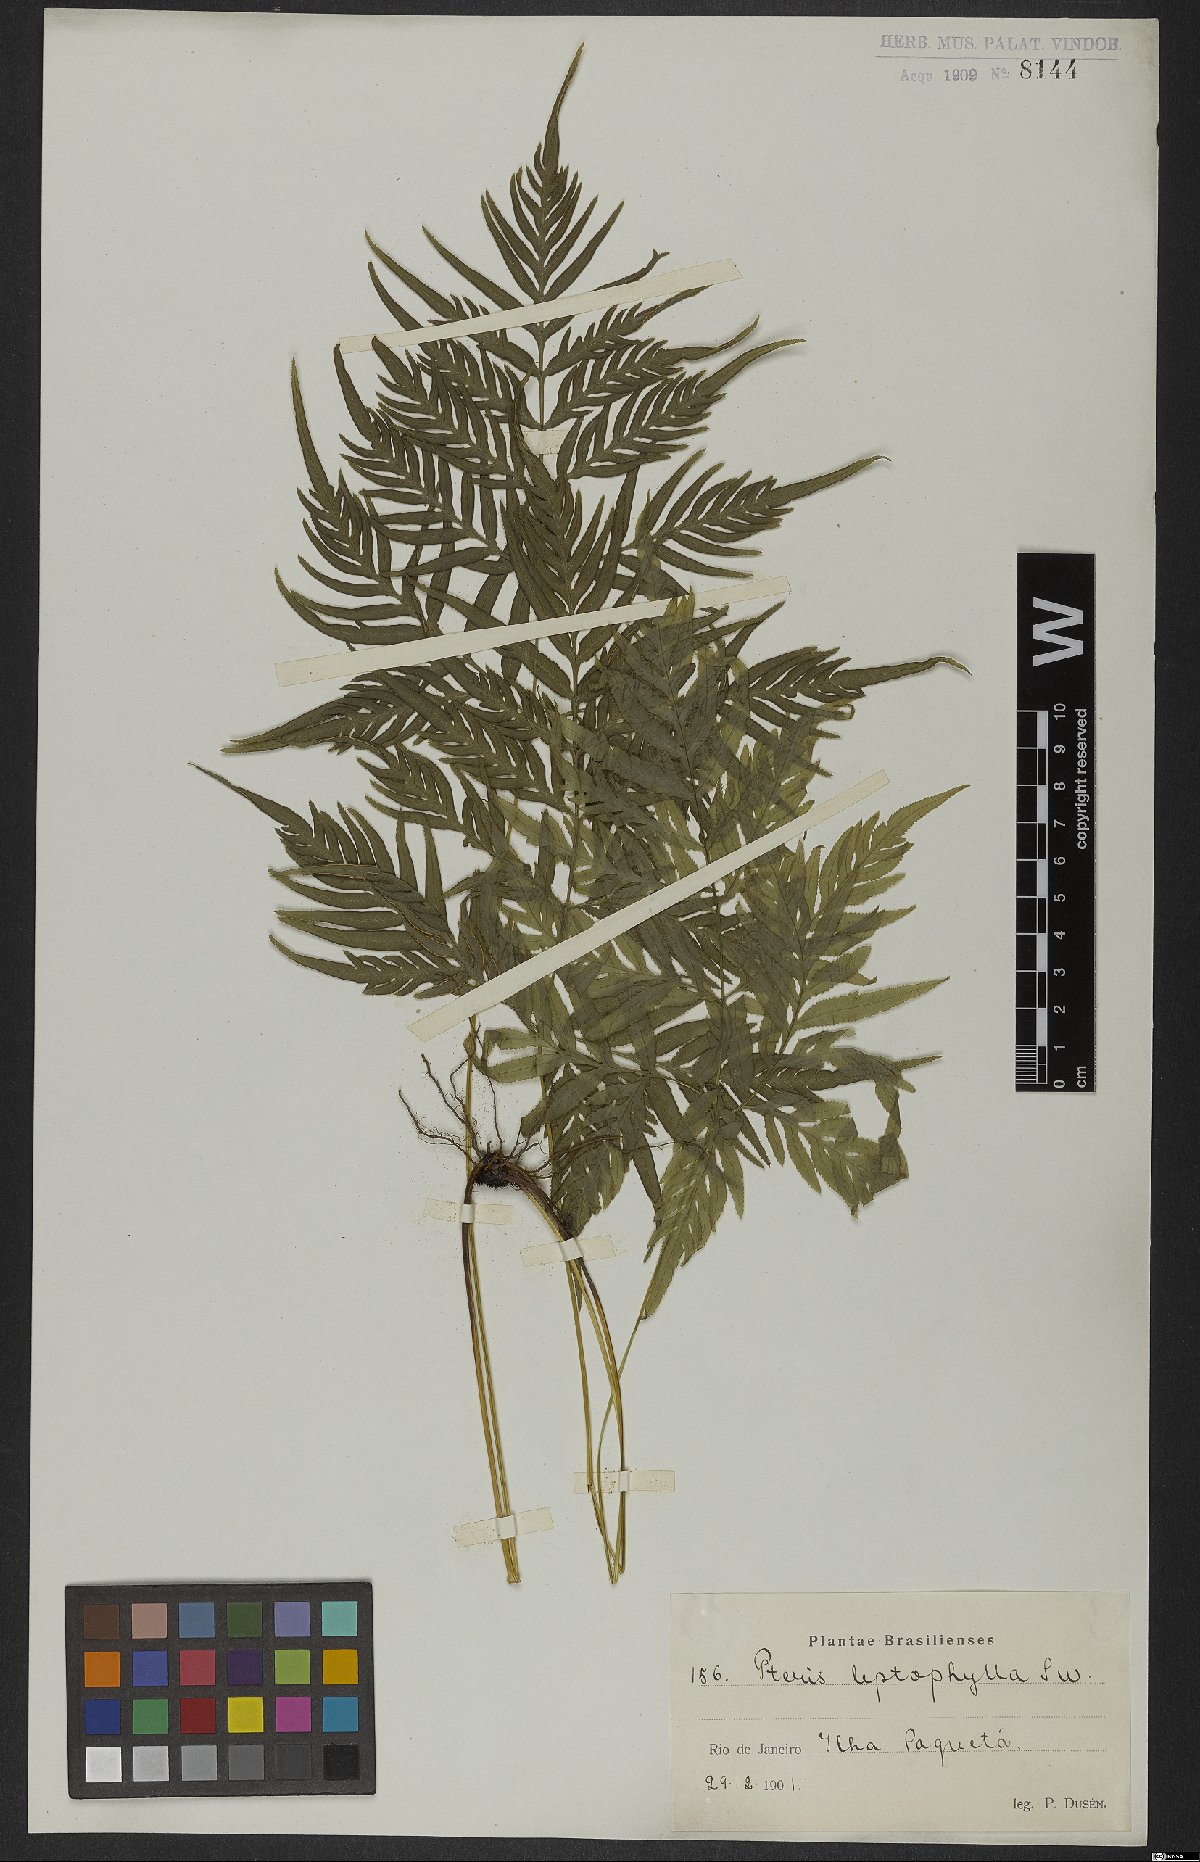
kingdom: Plantae
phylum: Tracheophyta
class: Polypodiopsida
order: Polypodiales
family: Pteridaceae
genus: Pteris
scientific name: Pteris leptophylla
